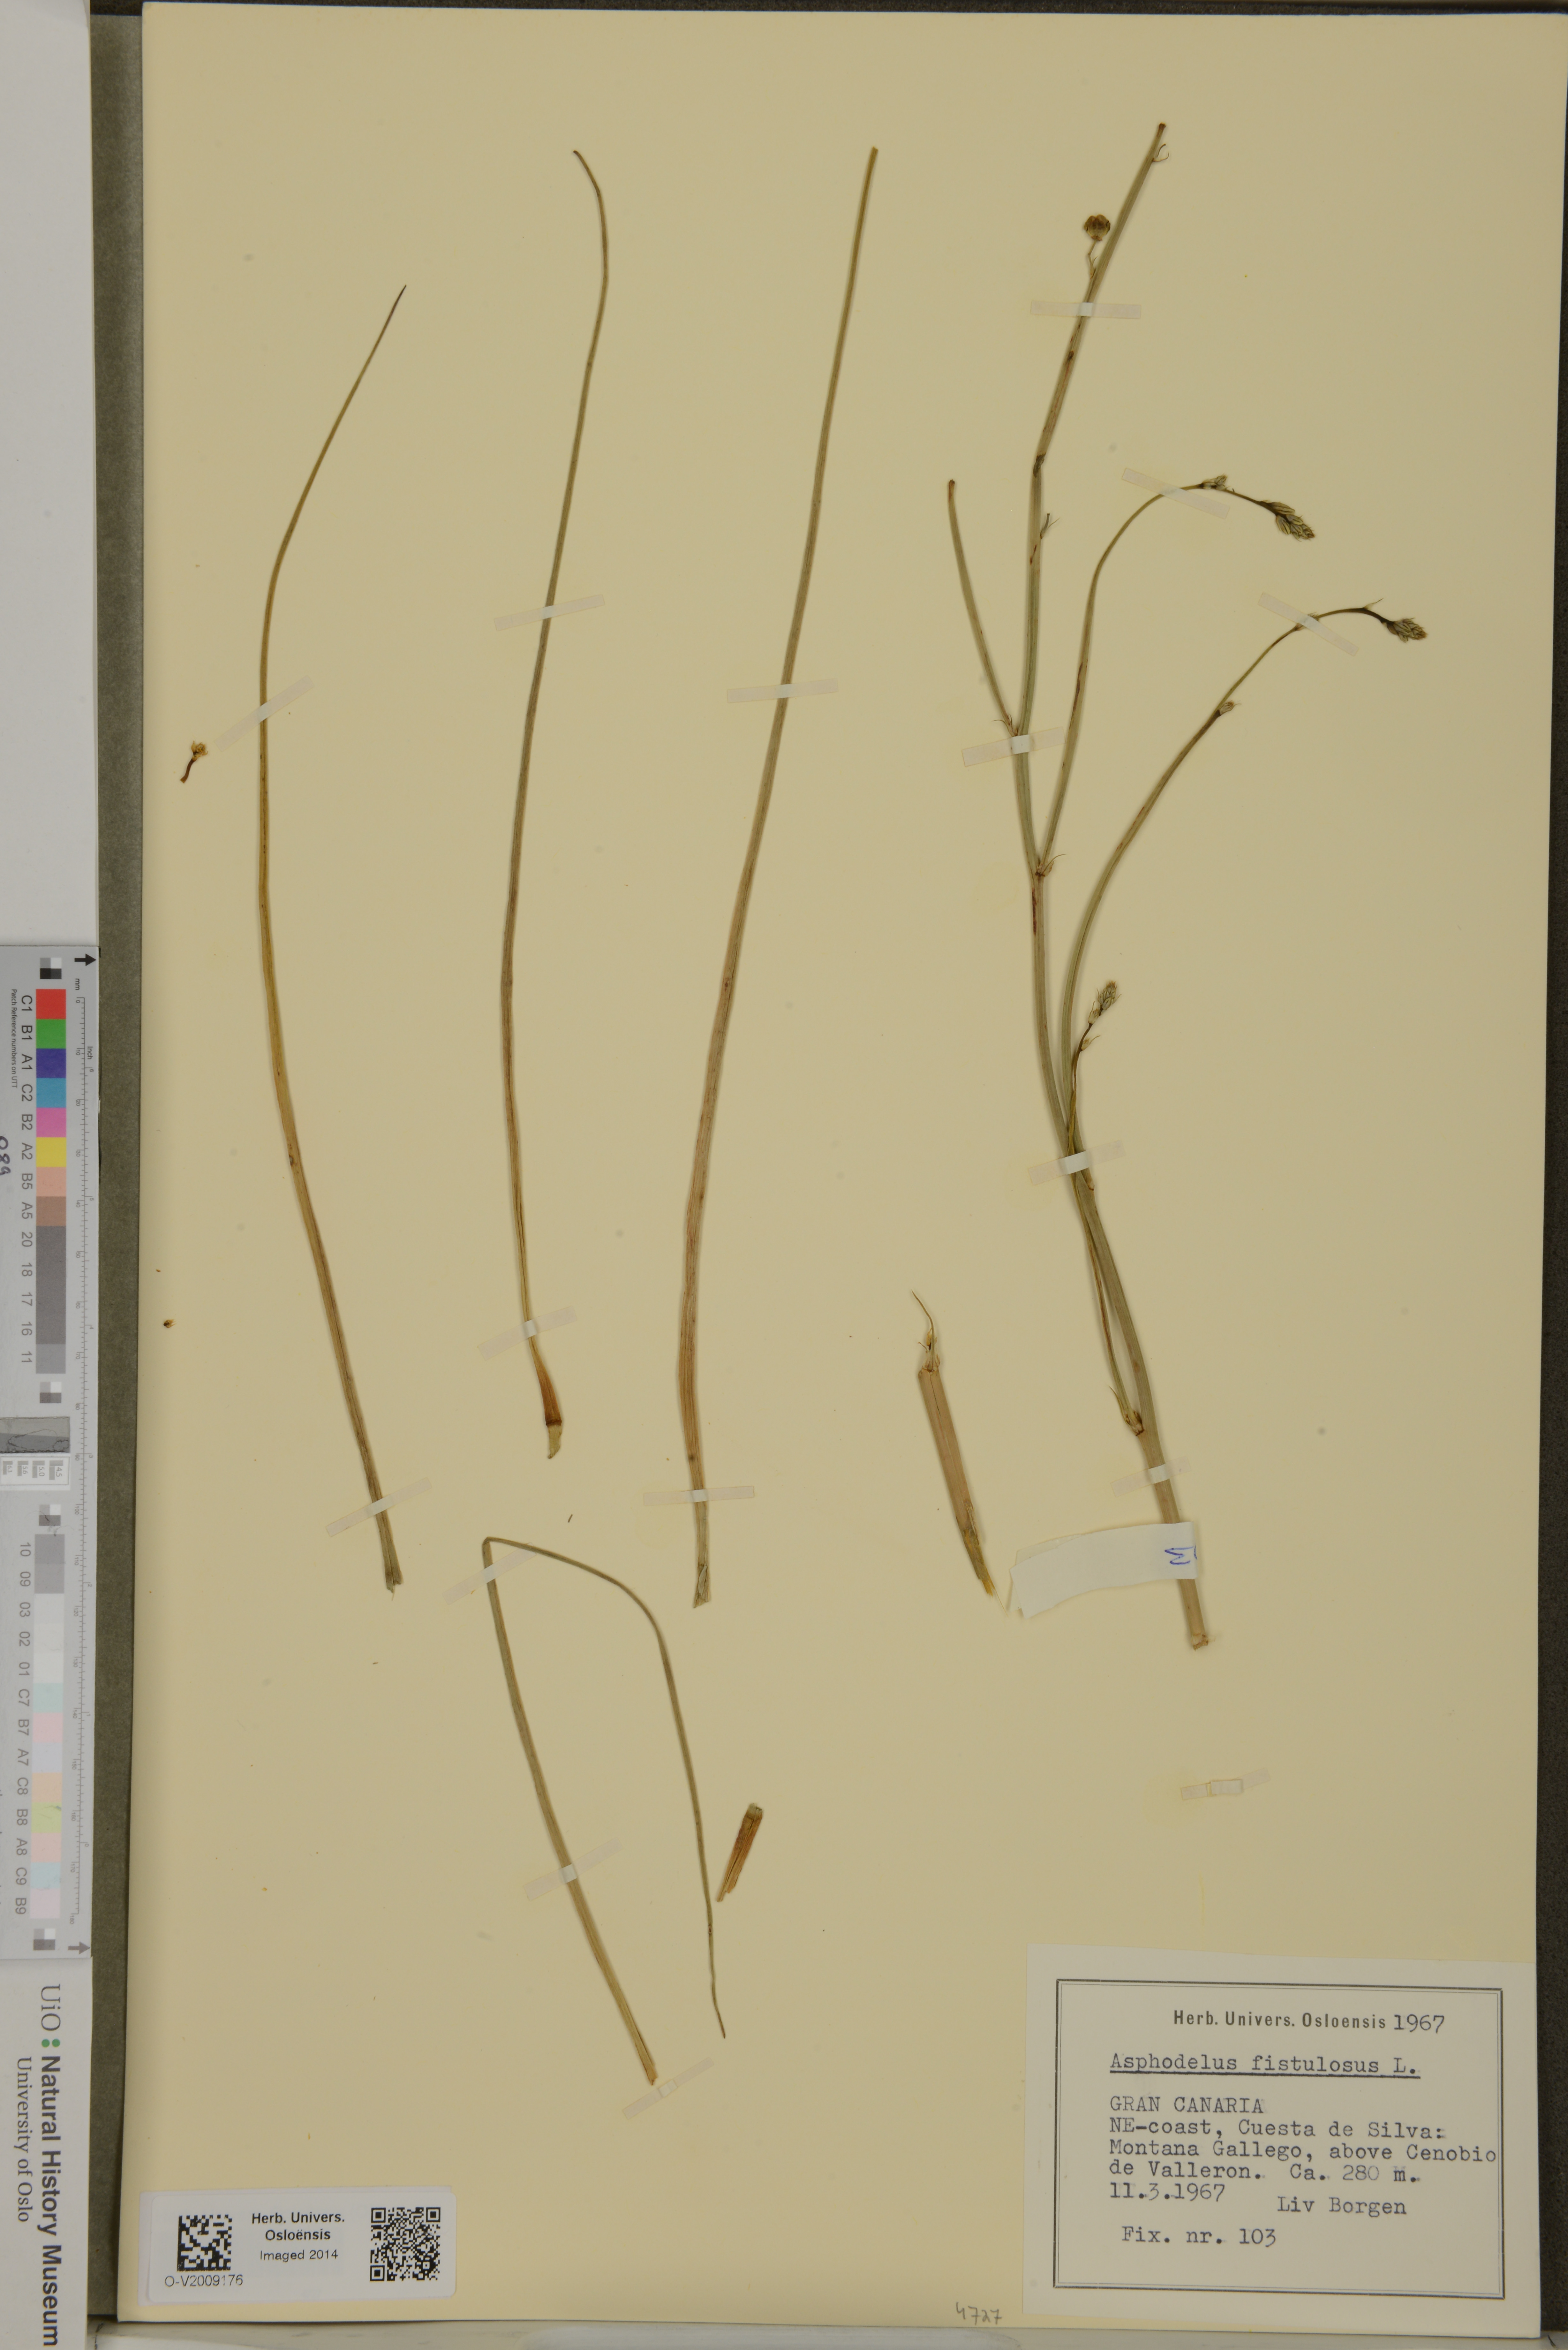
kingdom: Plantae
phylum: Tracheophyta
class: Liliopsida
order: Asparagales
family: Asphodelaceae
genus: Asphodelus
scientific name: Asphodelus fistulosus
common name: Onionweed
